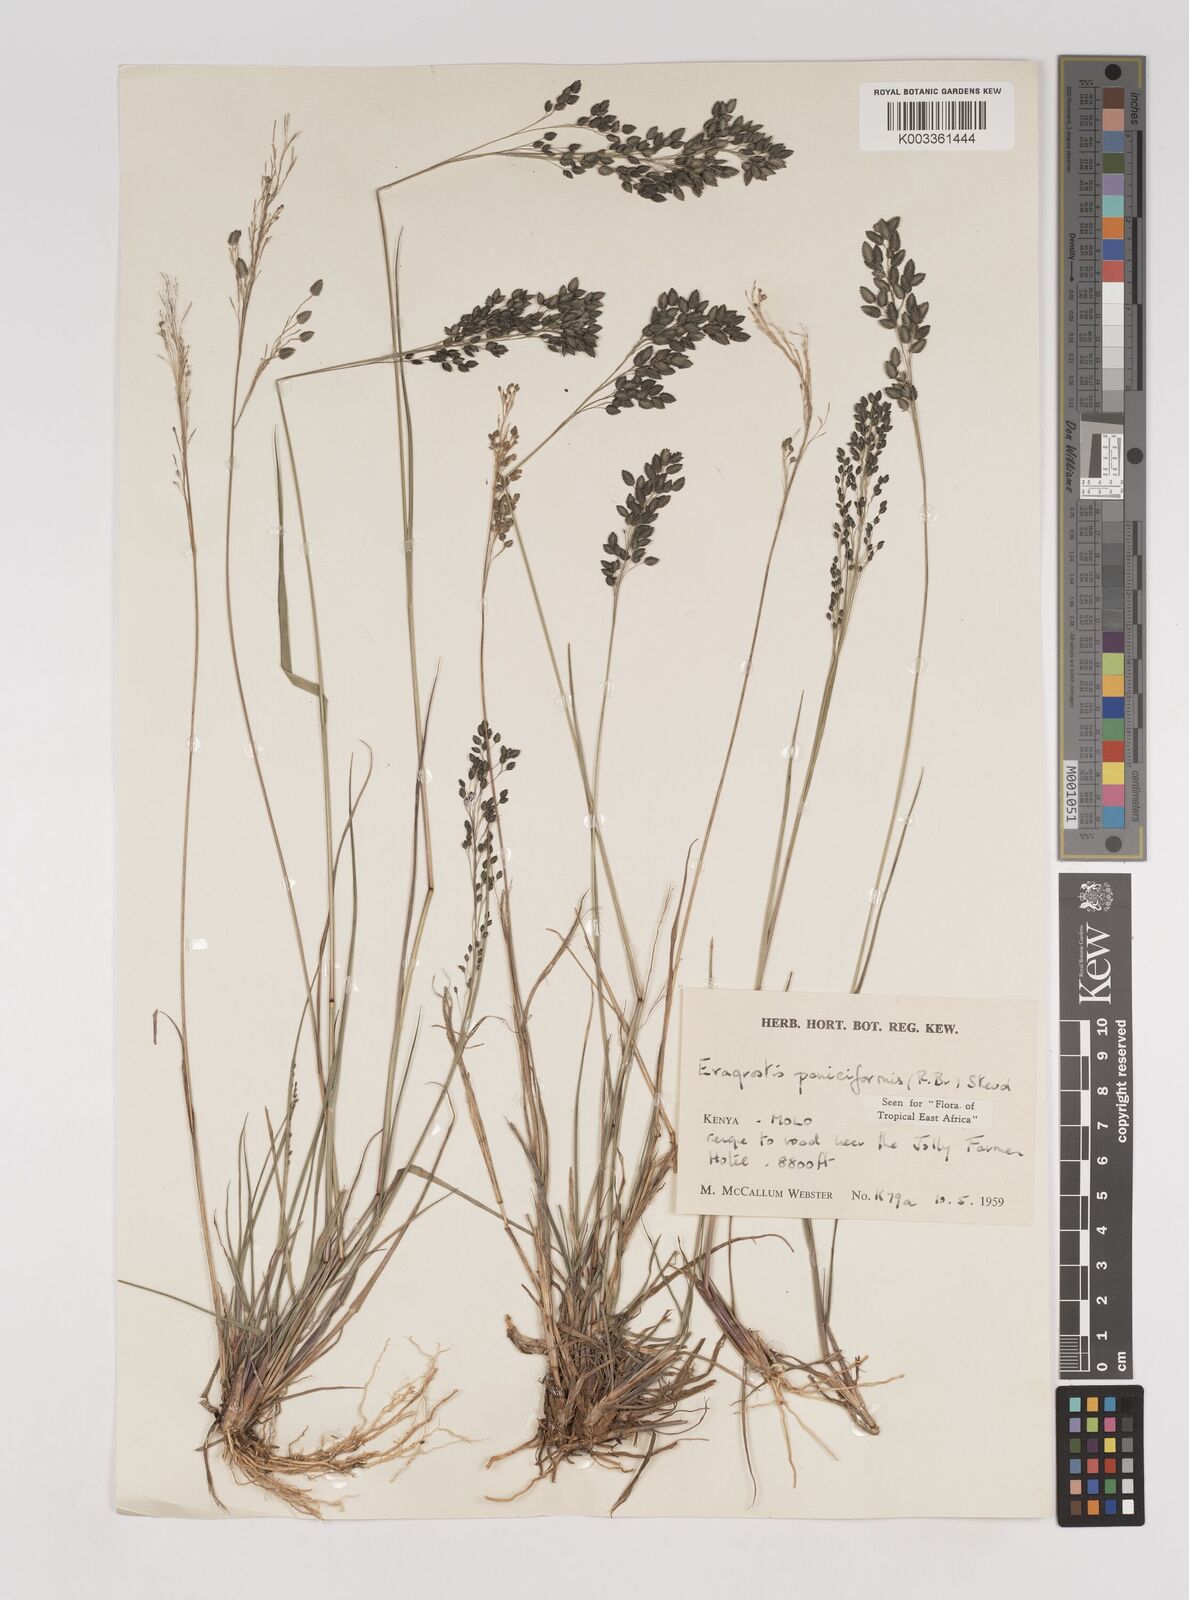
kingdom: Plantae
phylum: Tracheophyta
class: Liliopsida
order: Poales
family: Poaceae
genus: Eragrostis
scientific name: Eragrostis paniciformis
